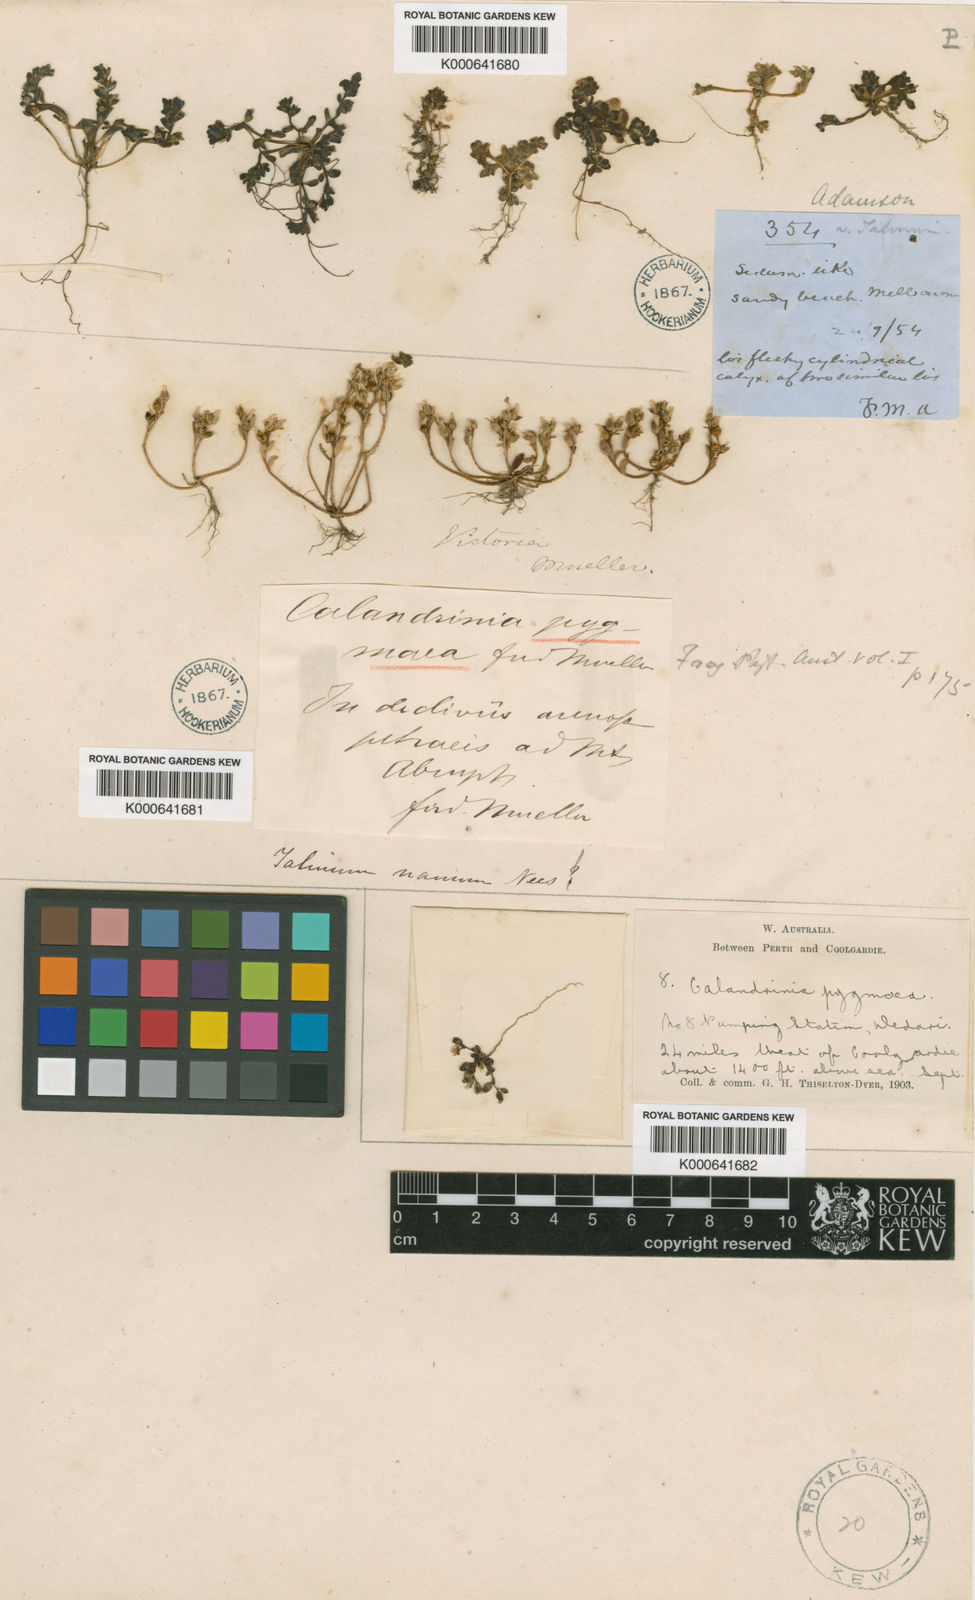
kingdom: Plantae
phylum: Tracheophyta
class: Magnoliopsida
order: Caryophyllales
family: Montiaceae
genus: Rumicastrum
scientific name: Rumicastrum granuliferum
